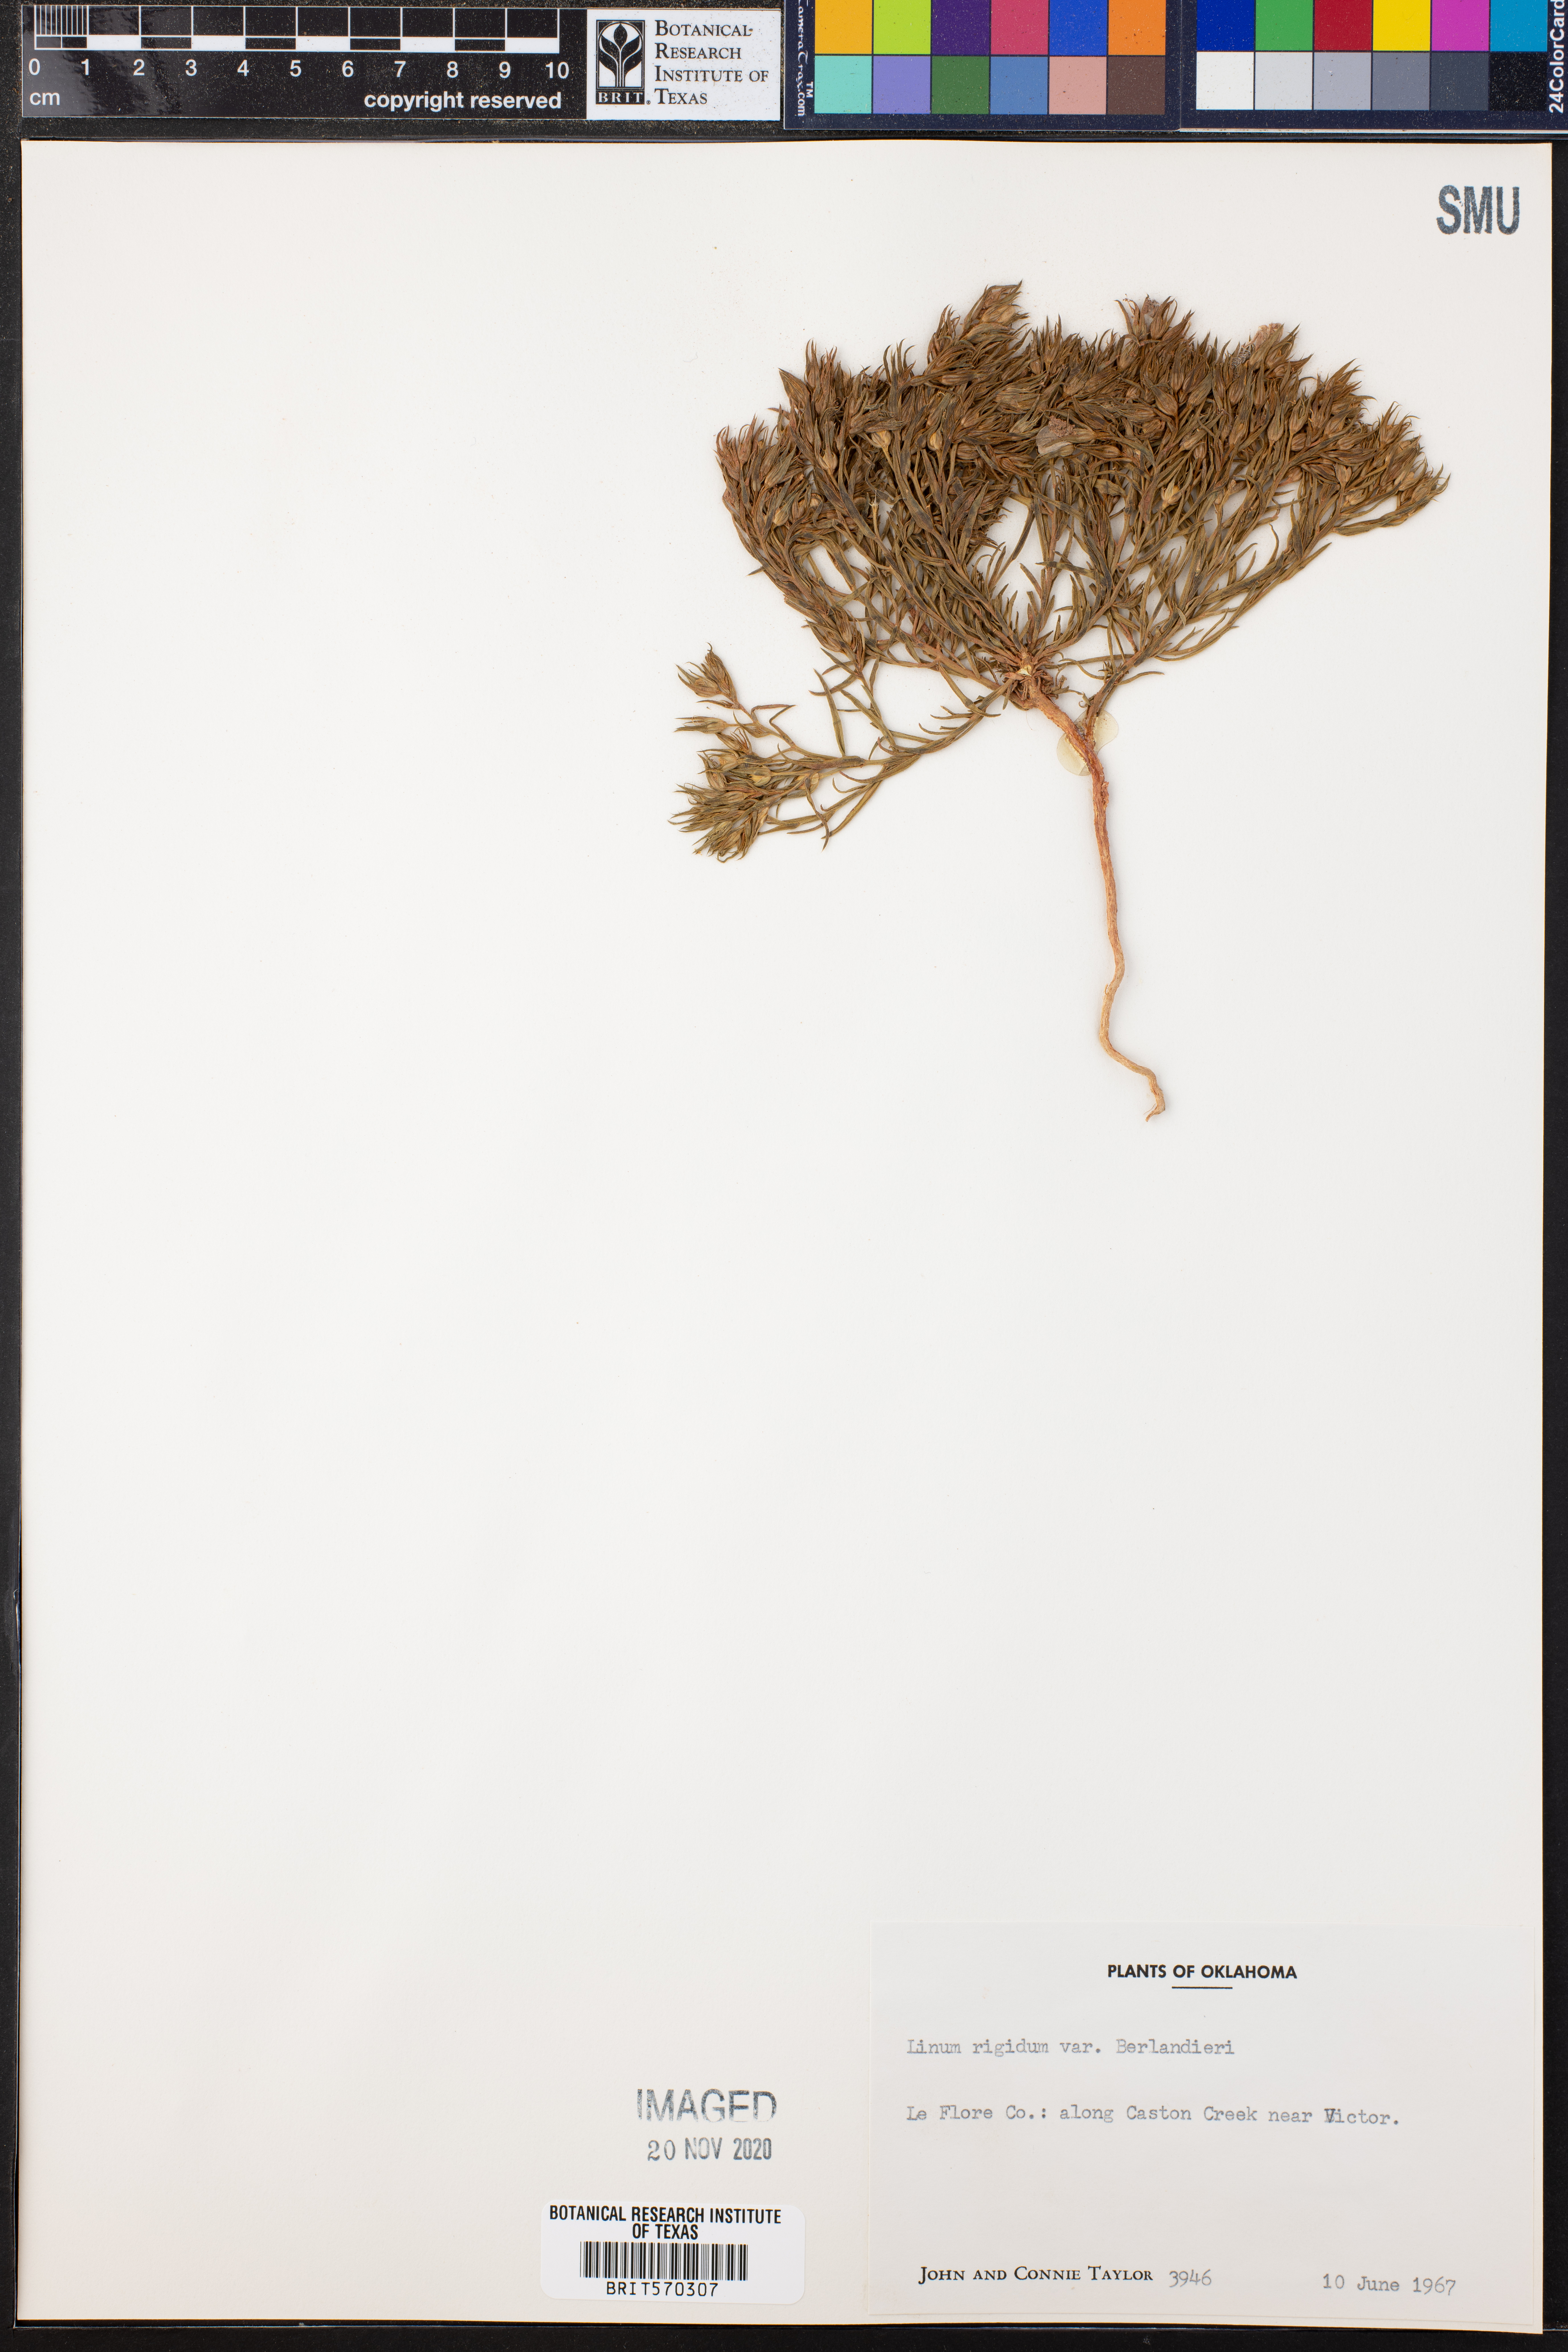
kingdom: Plantae
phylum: Tracheophyta
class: Magnoliopsida
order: Malpighiales
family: Linaceae
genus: Linum
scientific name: Linum berlandieri
